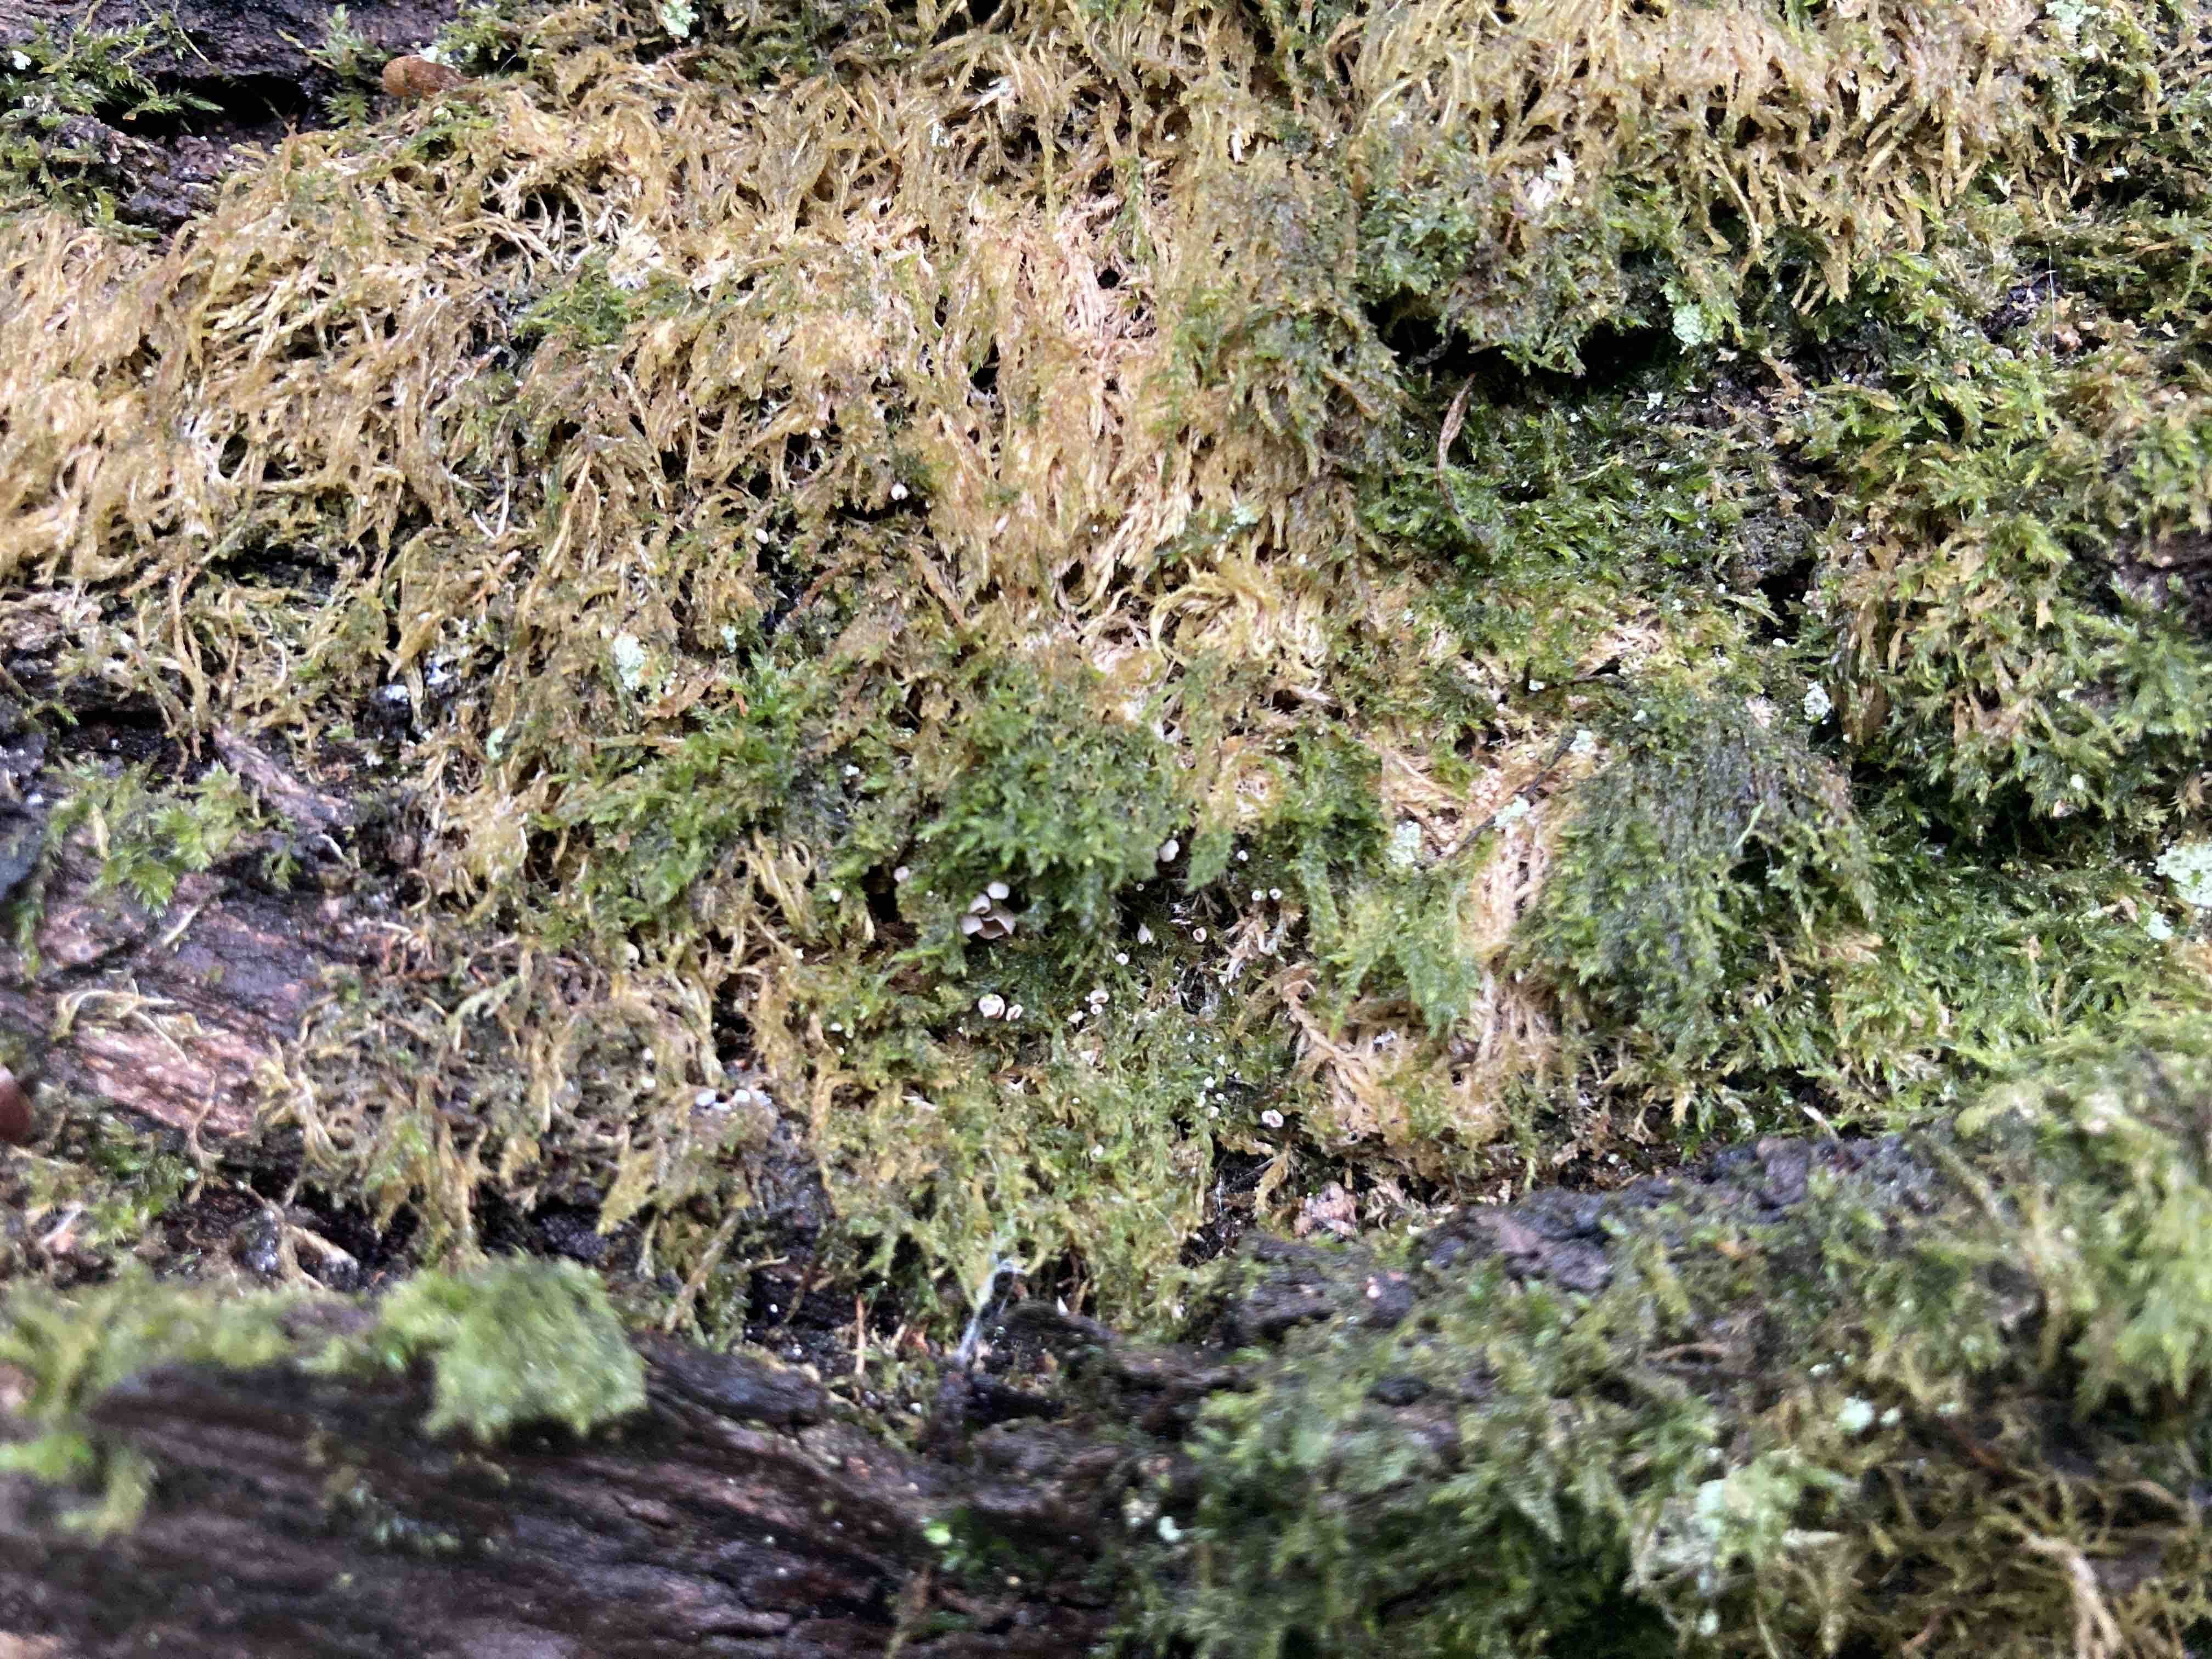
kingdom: Fungi
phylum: Basidiomycota
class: Agaricomycetes
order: Agaricales
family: Chromocyphellaceae
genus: Chromocyphella
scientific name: Chromocyphella muscicola
